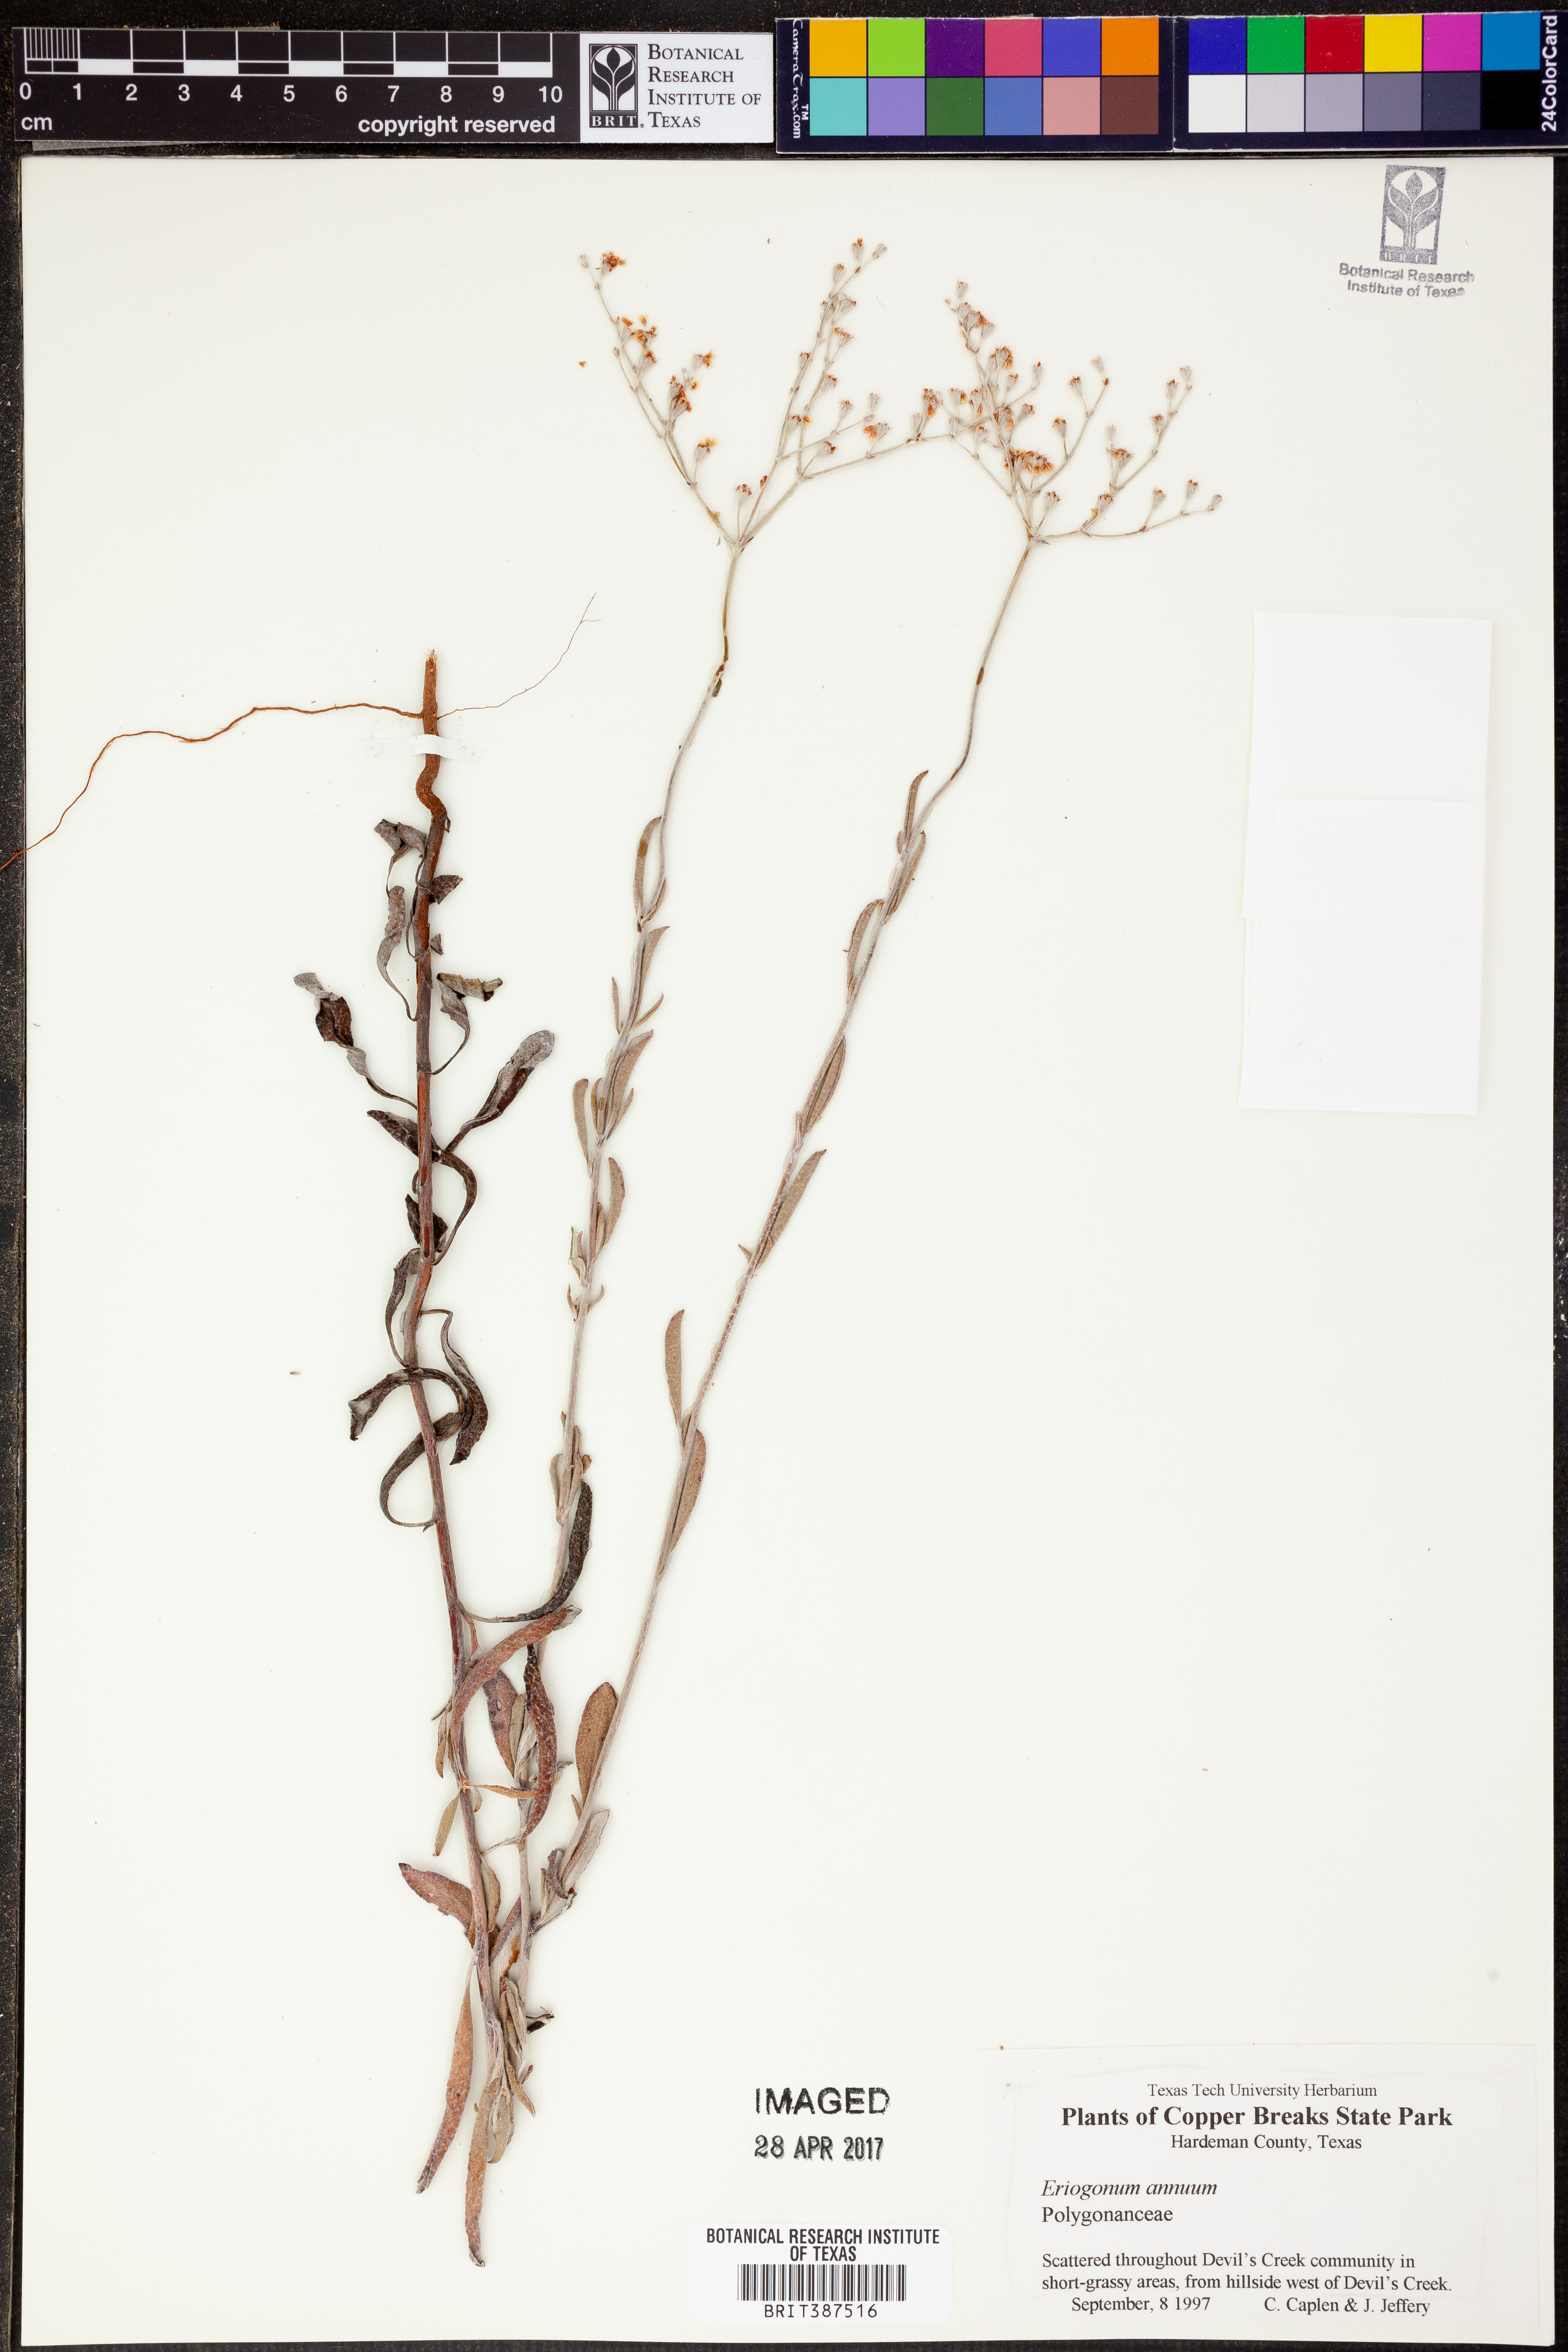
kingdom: Plantae
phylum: Tracheophyta
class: Magnoliopsida
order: Caryophyllales
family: Polygonaceae
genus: Eriogonum
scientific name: Eriogonum annuum
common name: Annual wild buckwheat
